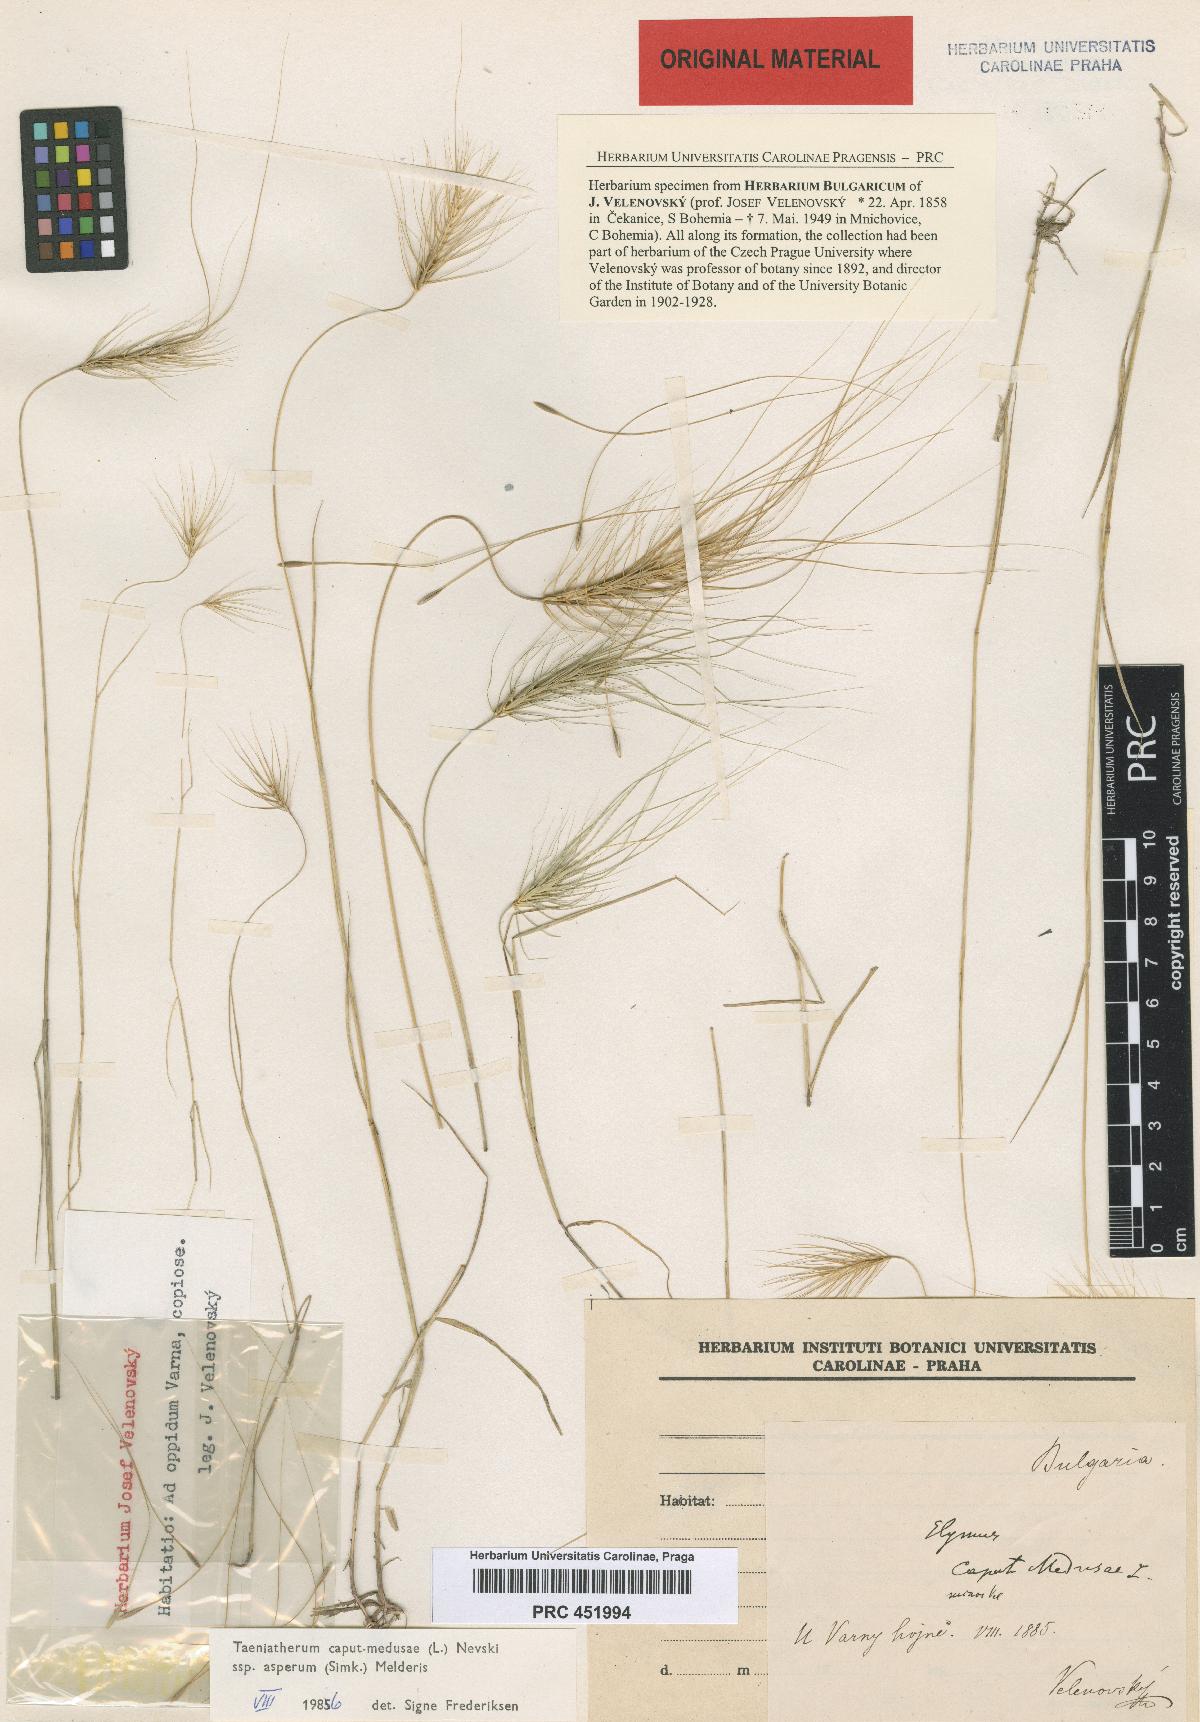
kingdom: Plantae
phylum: Tracheophyta
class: Liliopsida
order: Poales
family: Poaceae
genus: Taeniatherum
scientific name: Taeniatherum caput-medusae
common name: Medusahead
